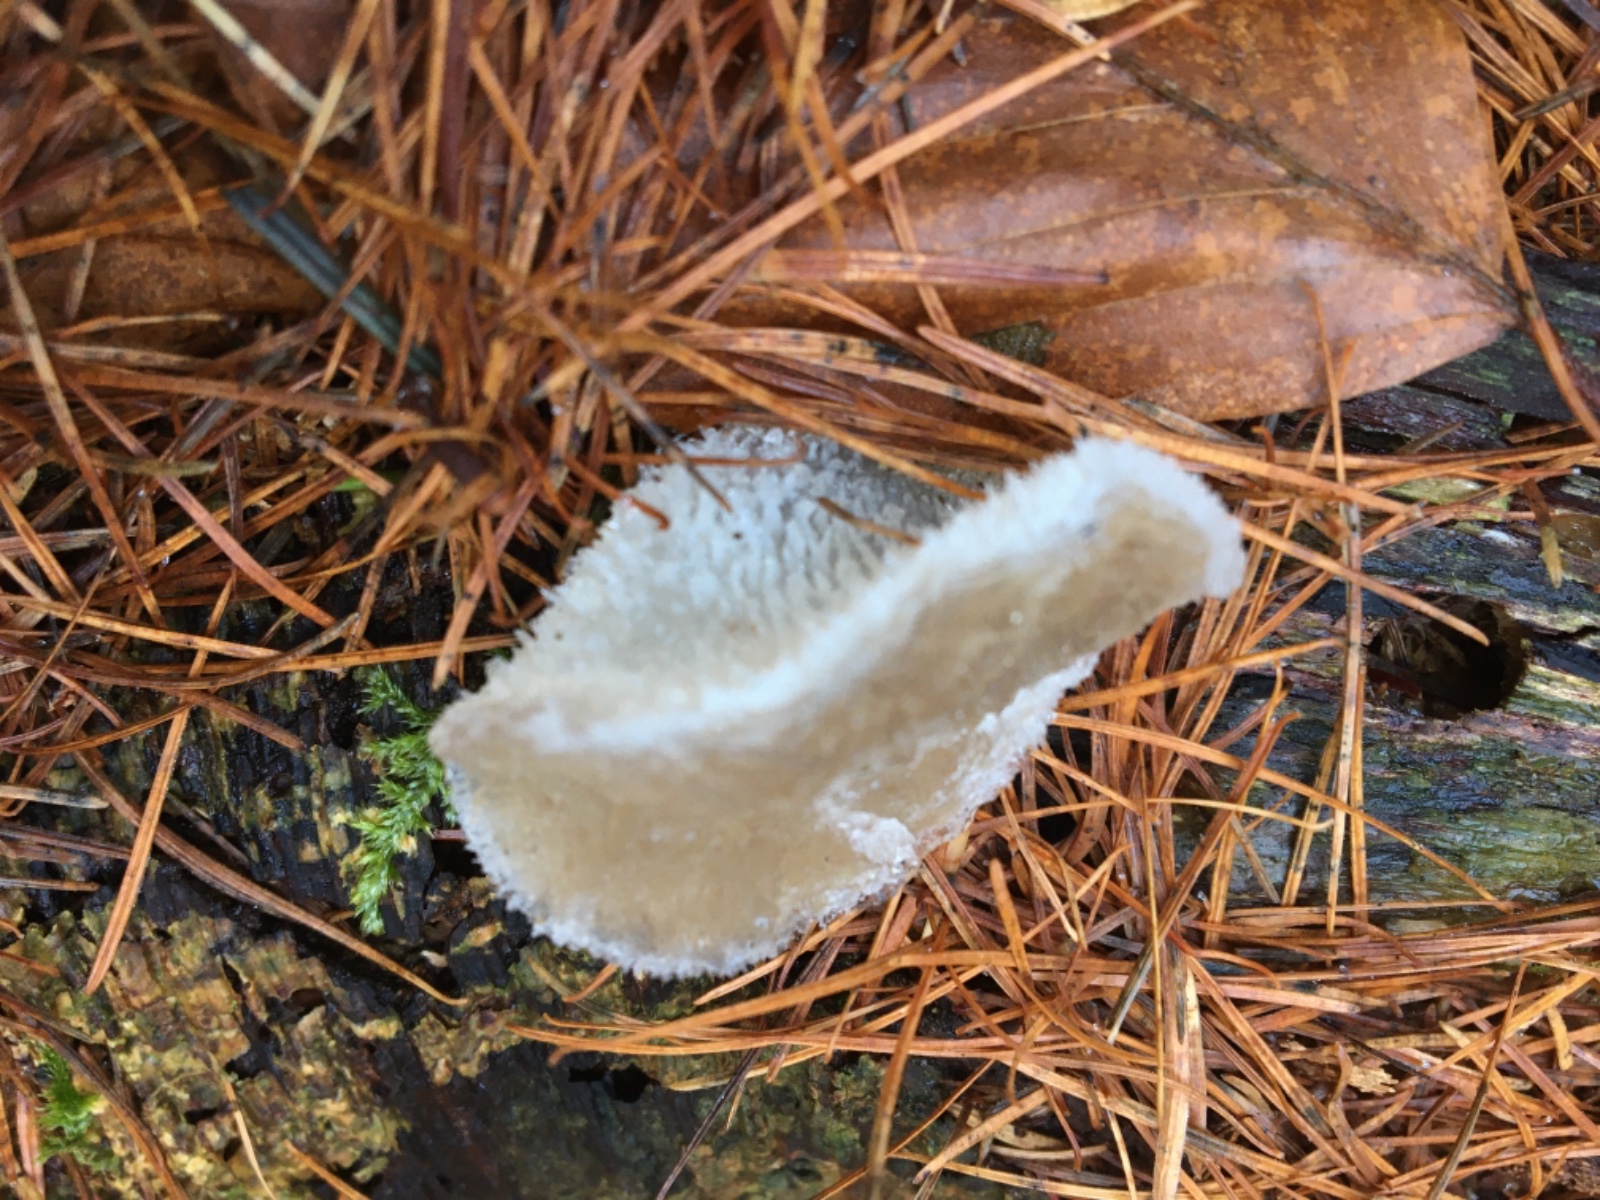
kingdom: Fungi
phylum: Basidiomycota
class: Agaricomycetes
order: Auriculariales
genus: Pseudohydnum
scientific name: Pseudohydnum gelatinosum
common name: bævretand
